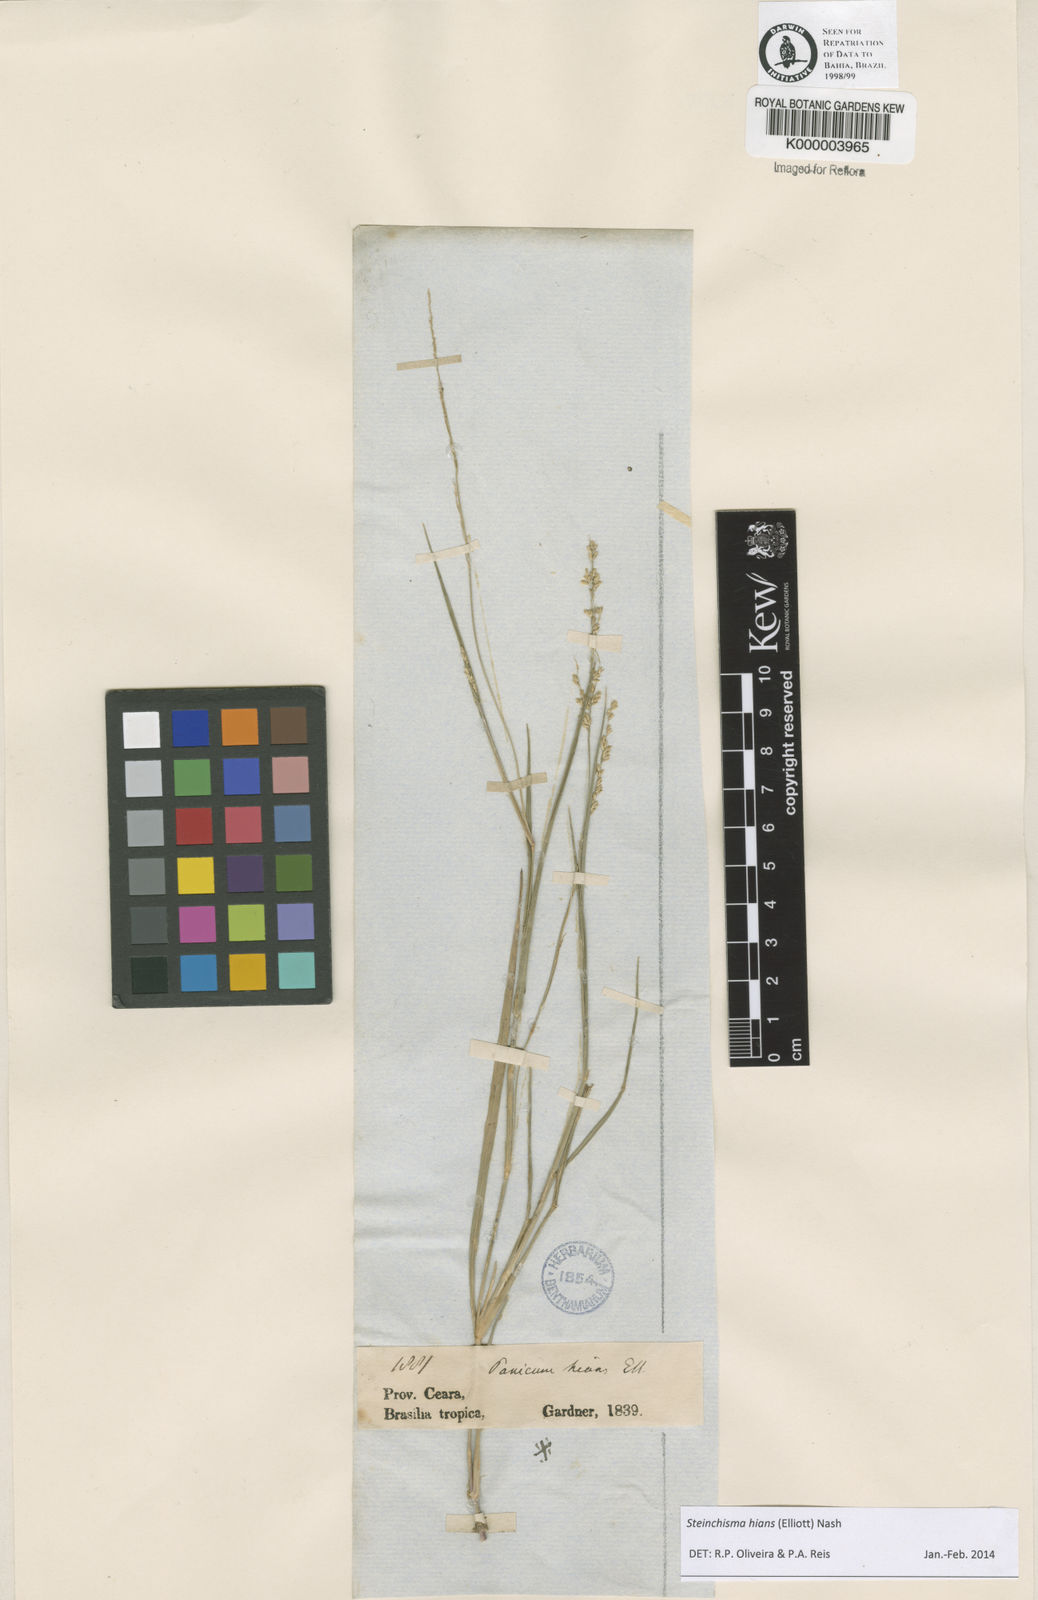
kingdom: Plantae
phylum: Tracheophyta
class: Liliopsida
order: Poales
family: Poaceae
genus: Steinchisma
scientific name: Steinchisma hians
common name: Gaping panic grass
